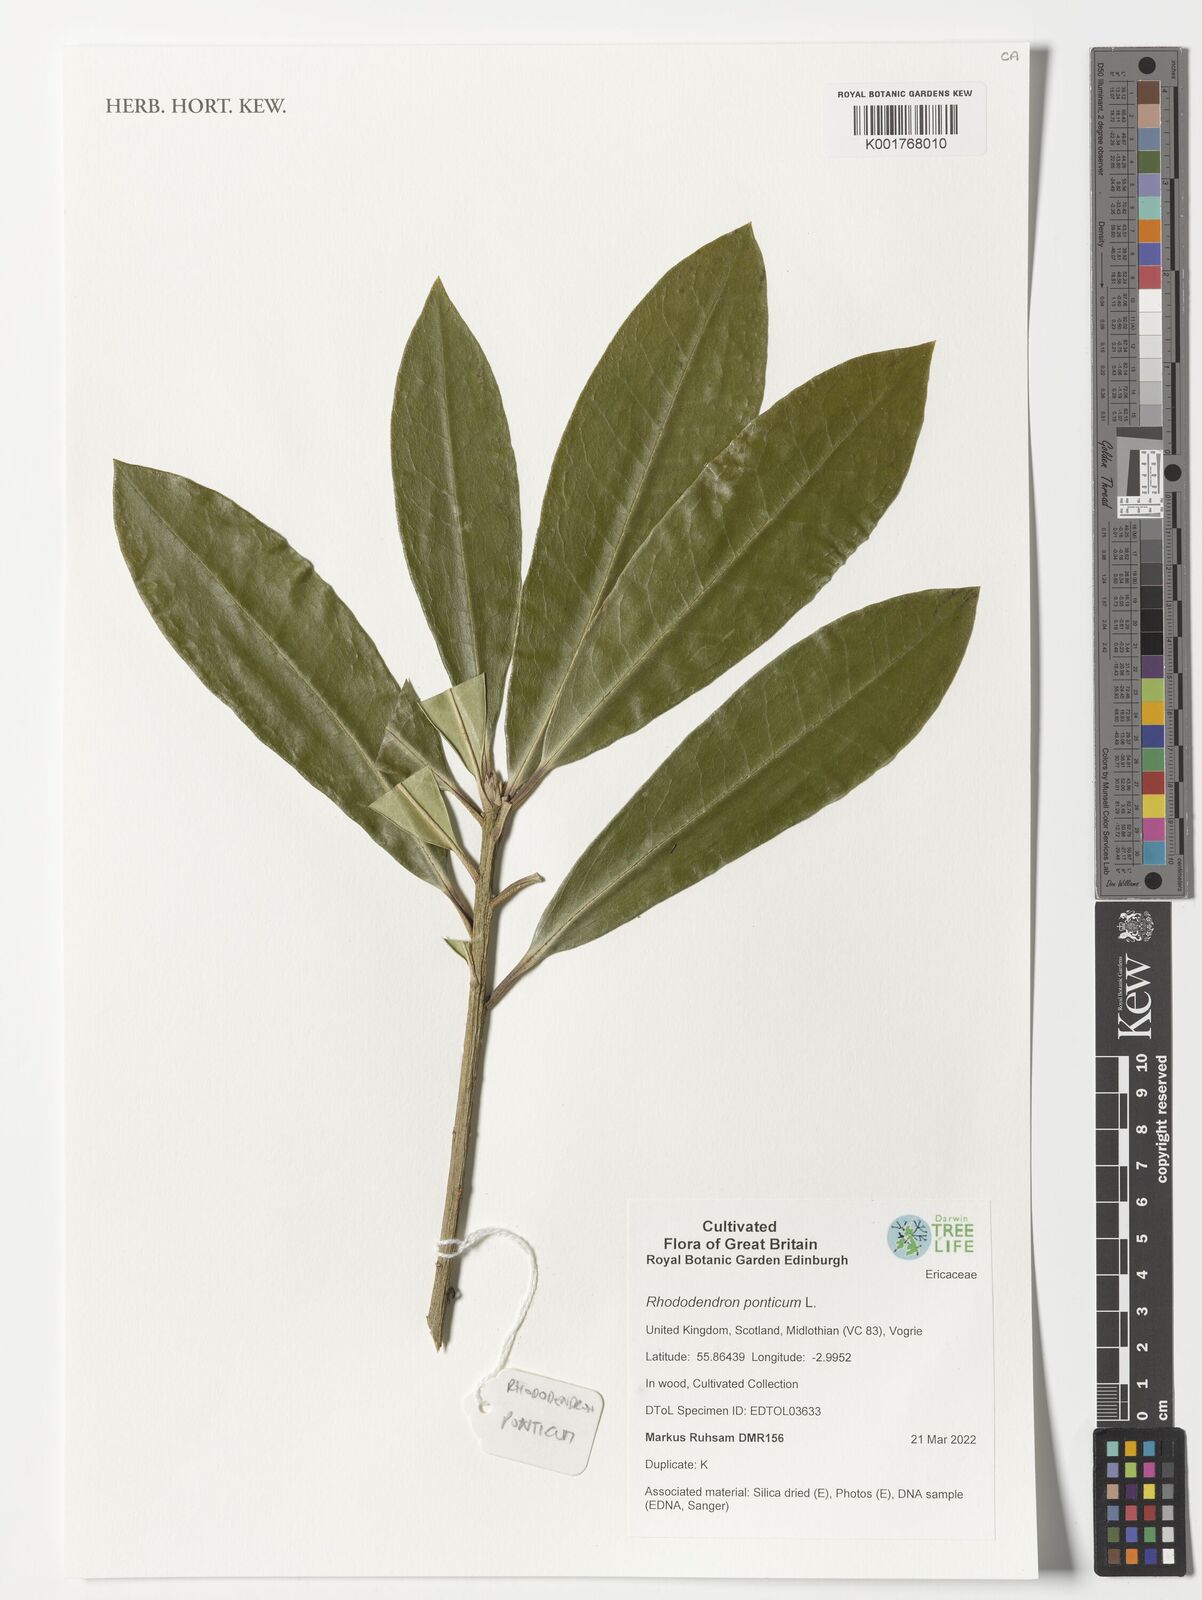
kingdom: Plantae
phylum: Tracheophyta
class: Magnoliopsida
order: Ericales
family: Ericaceae
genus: Rhododendron
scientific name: Rhododendron ponticum
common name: Rhododendron
